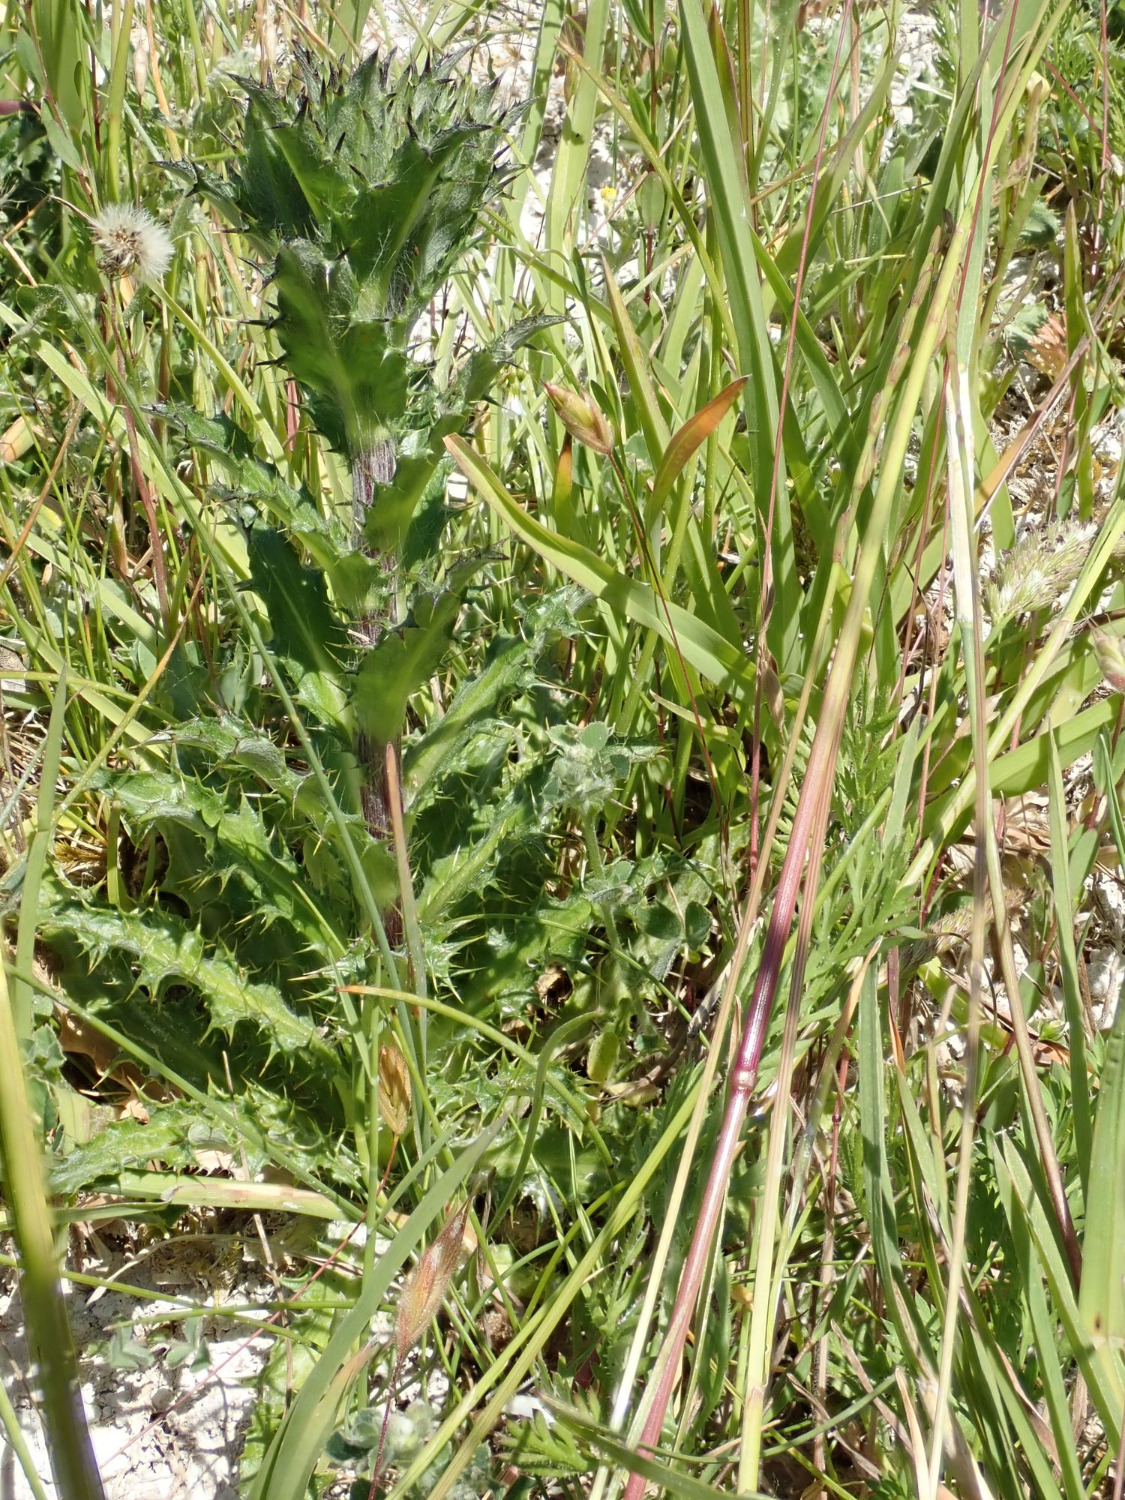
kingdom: Plantae
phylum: Tracheophyta
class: Magnoliopsida
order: Asterales
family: Asteraceae
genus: Carlina
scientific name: Carlina vulgaris
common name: Bakketidsel
